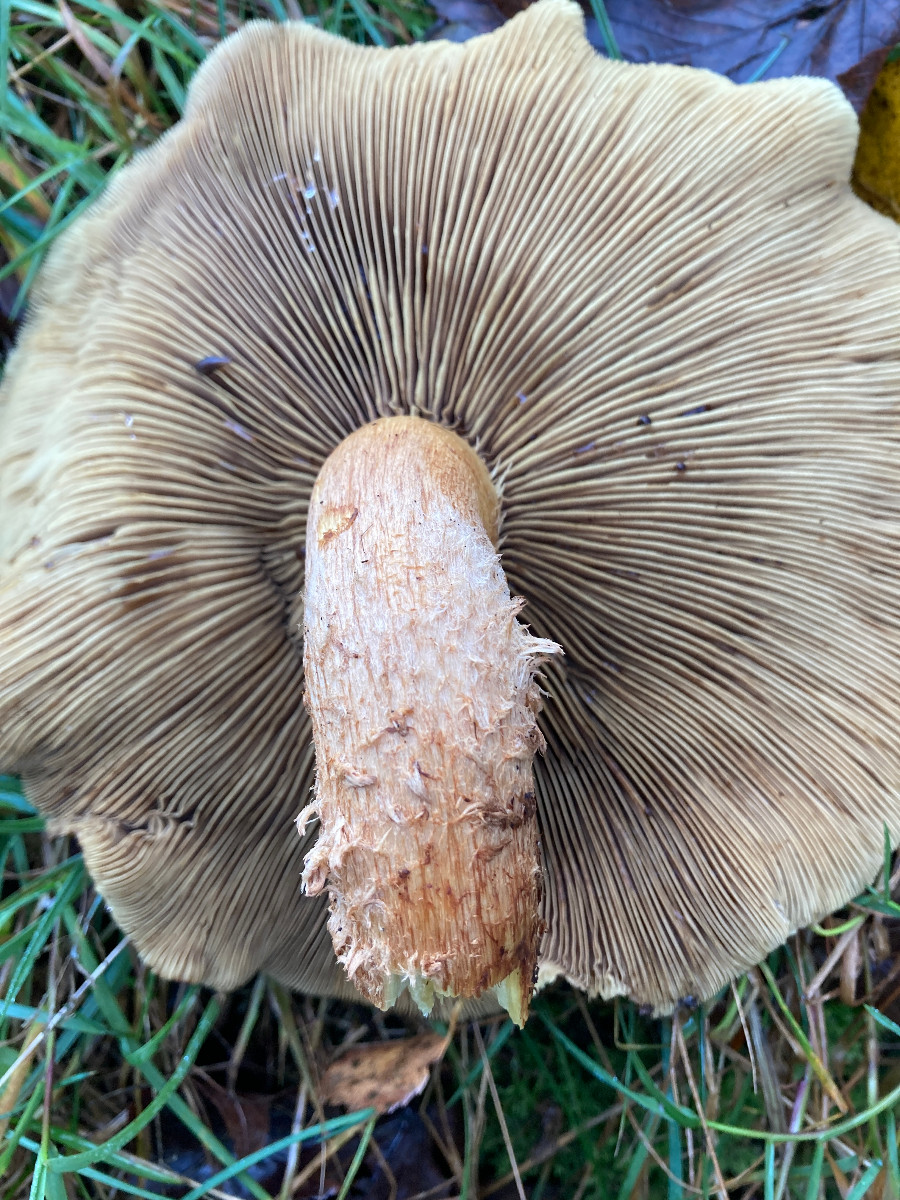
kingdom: Fungi
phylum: Basidiomycota
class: Agaricomycetes
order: Agaricales
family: Strophariaceae
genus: Pholiota
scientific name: Pholiota squarrosa
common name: krumskællet skælhat
